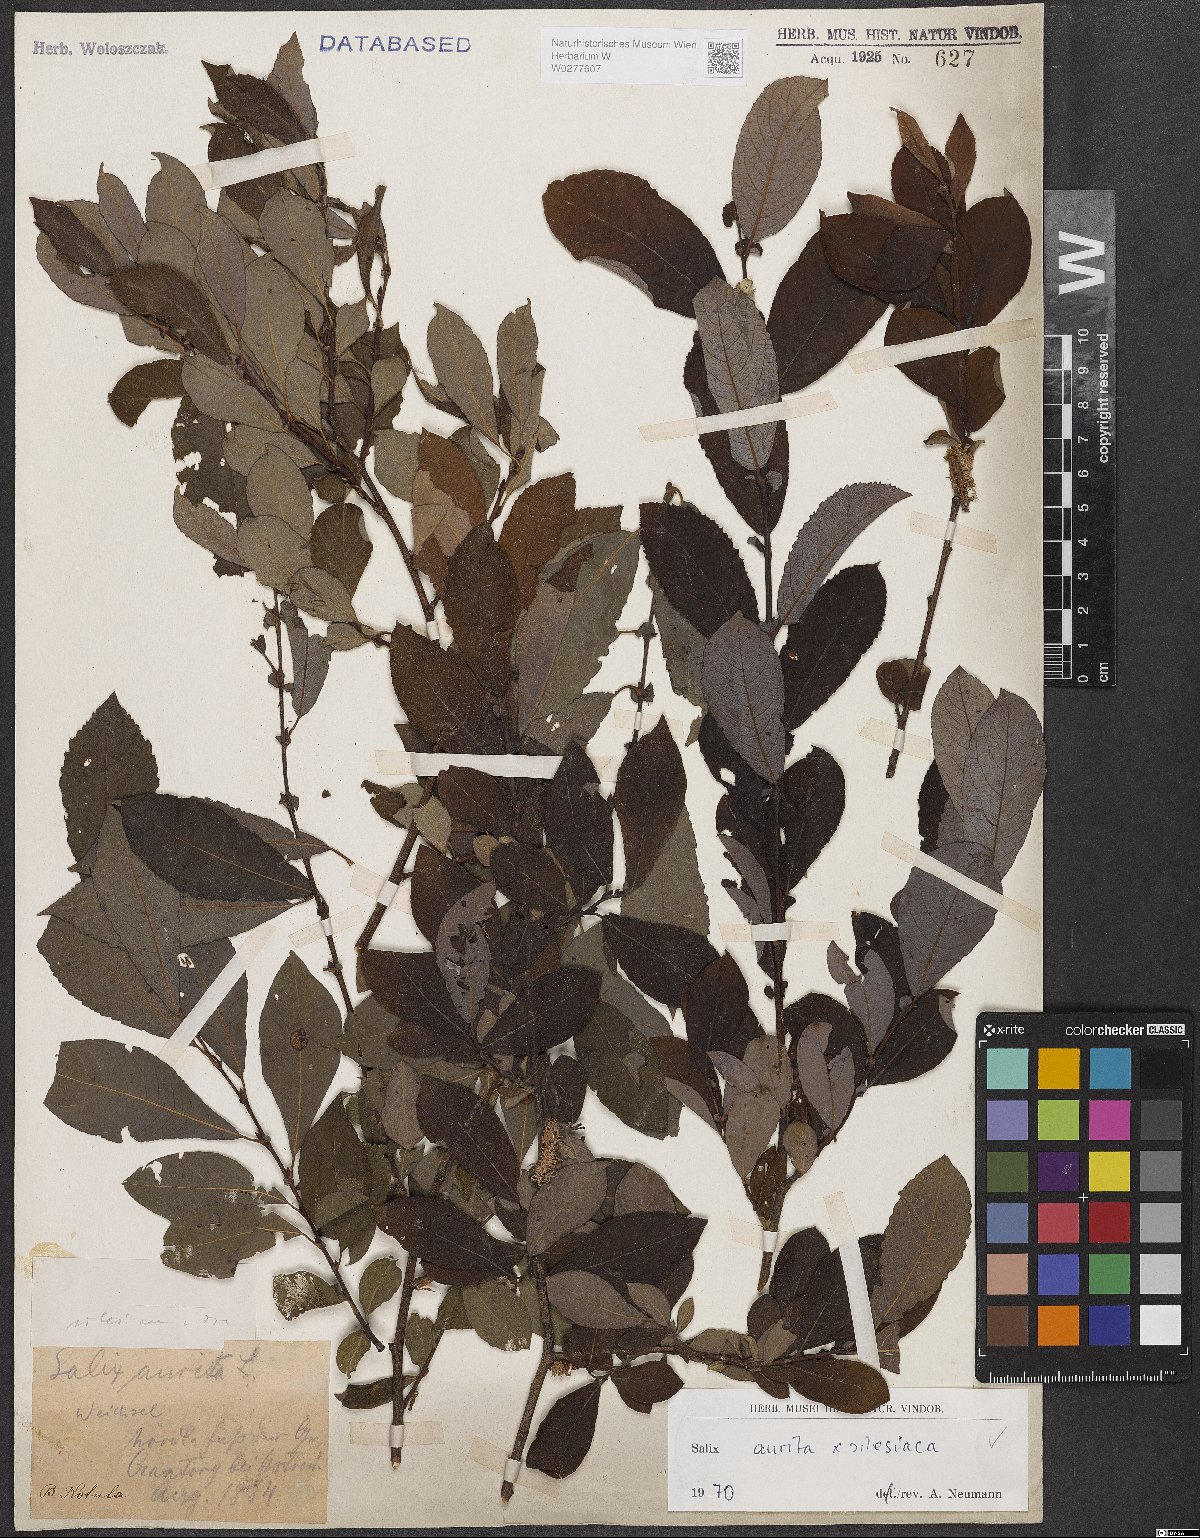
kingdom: Plantae
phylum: Tracheophyta
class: Magnoliopsida
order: Malpighiales
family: Salicaceae
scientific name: Salicaceae
